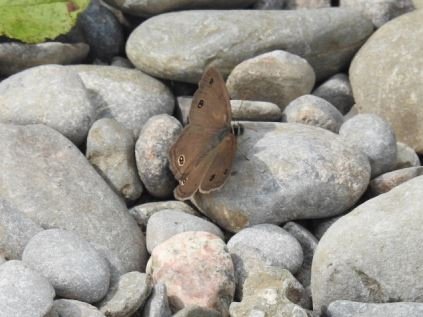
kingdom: Animalia
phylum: Arthropoda
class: Insecta
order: Lepidoptera
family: Nymphalidae
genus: Euptychia
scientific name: Euptychia cymela
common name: Little Wood Satyr
